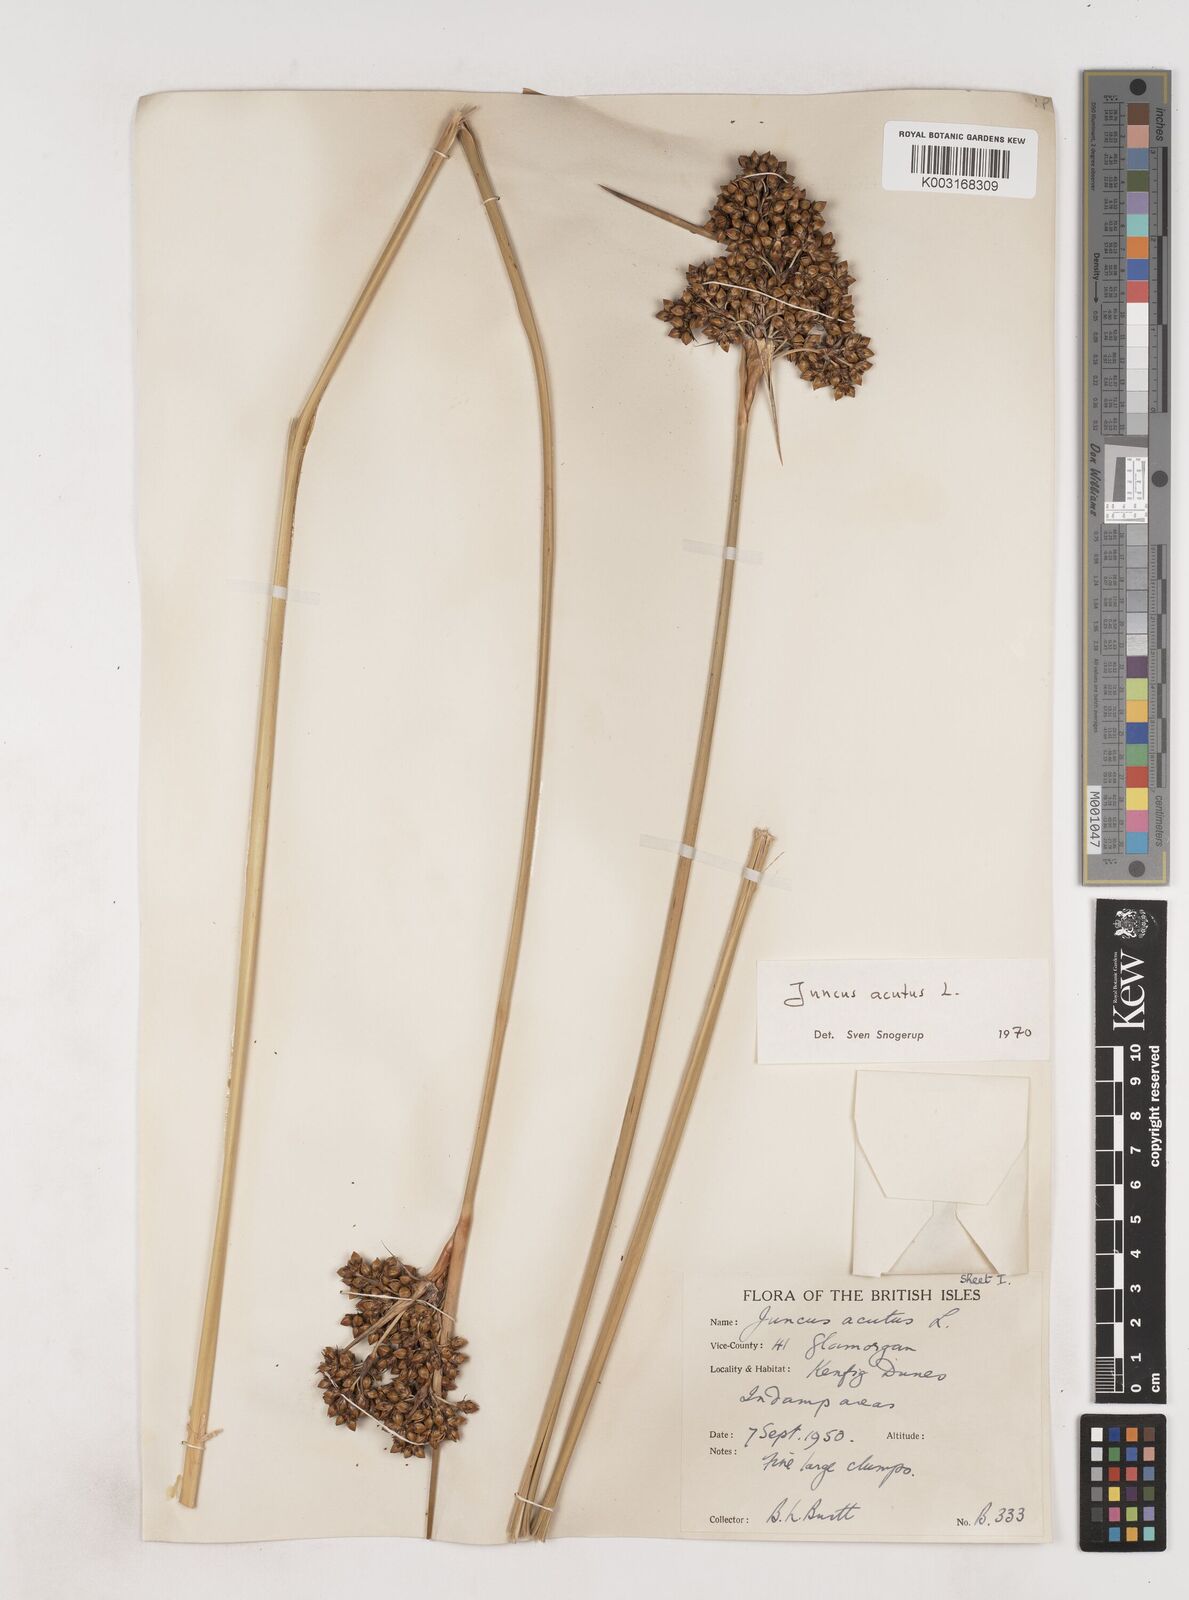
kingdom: Plantae
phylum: Tracheophyta
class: Liliopsida
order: Poales
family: Juncaceae
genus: Juncus
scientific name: Juncus acutus
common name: Sharp rush
